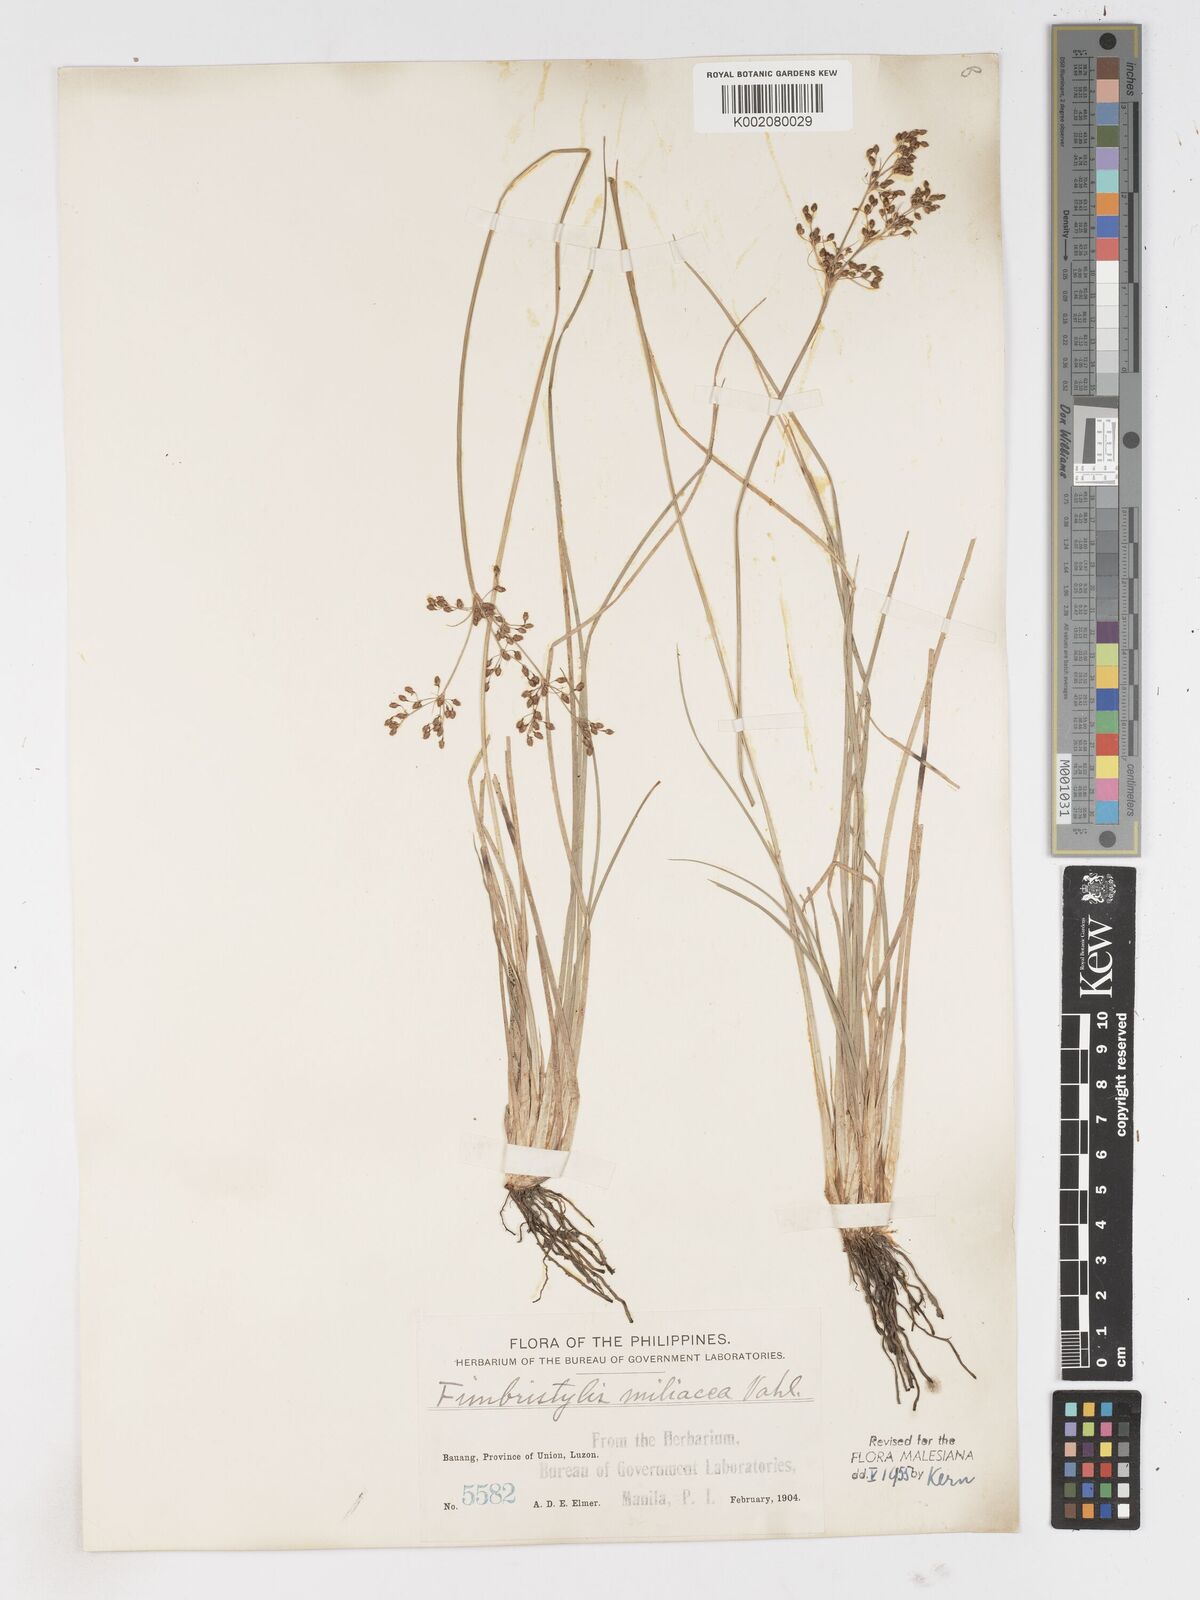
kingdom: Plantae
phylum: Tracheophyta
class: Liliopsida
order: Poales
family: Cyperaceae
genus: Fimbristylis
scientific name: Fimbristylis littoralis
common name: Fimbry
